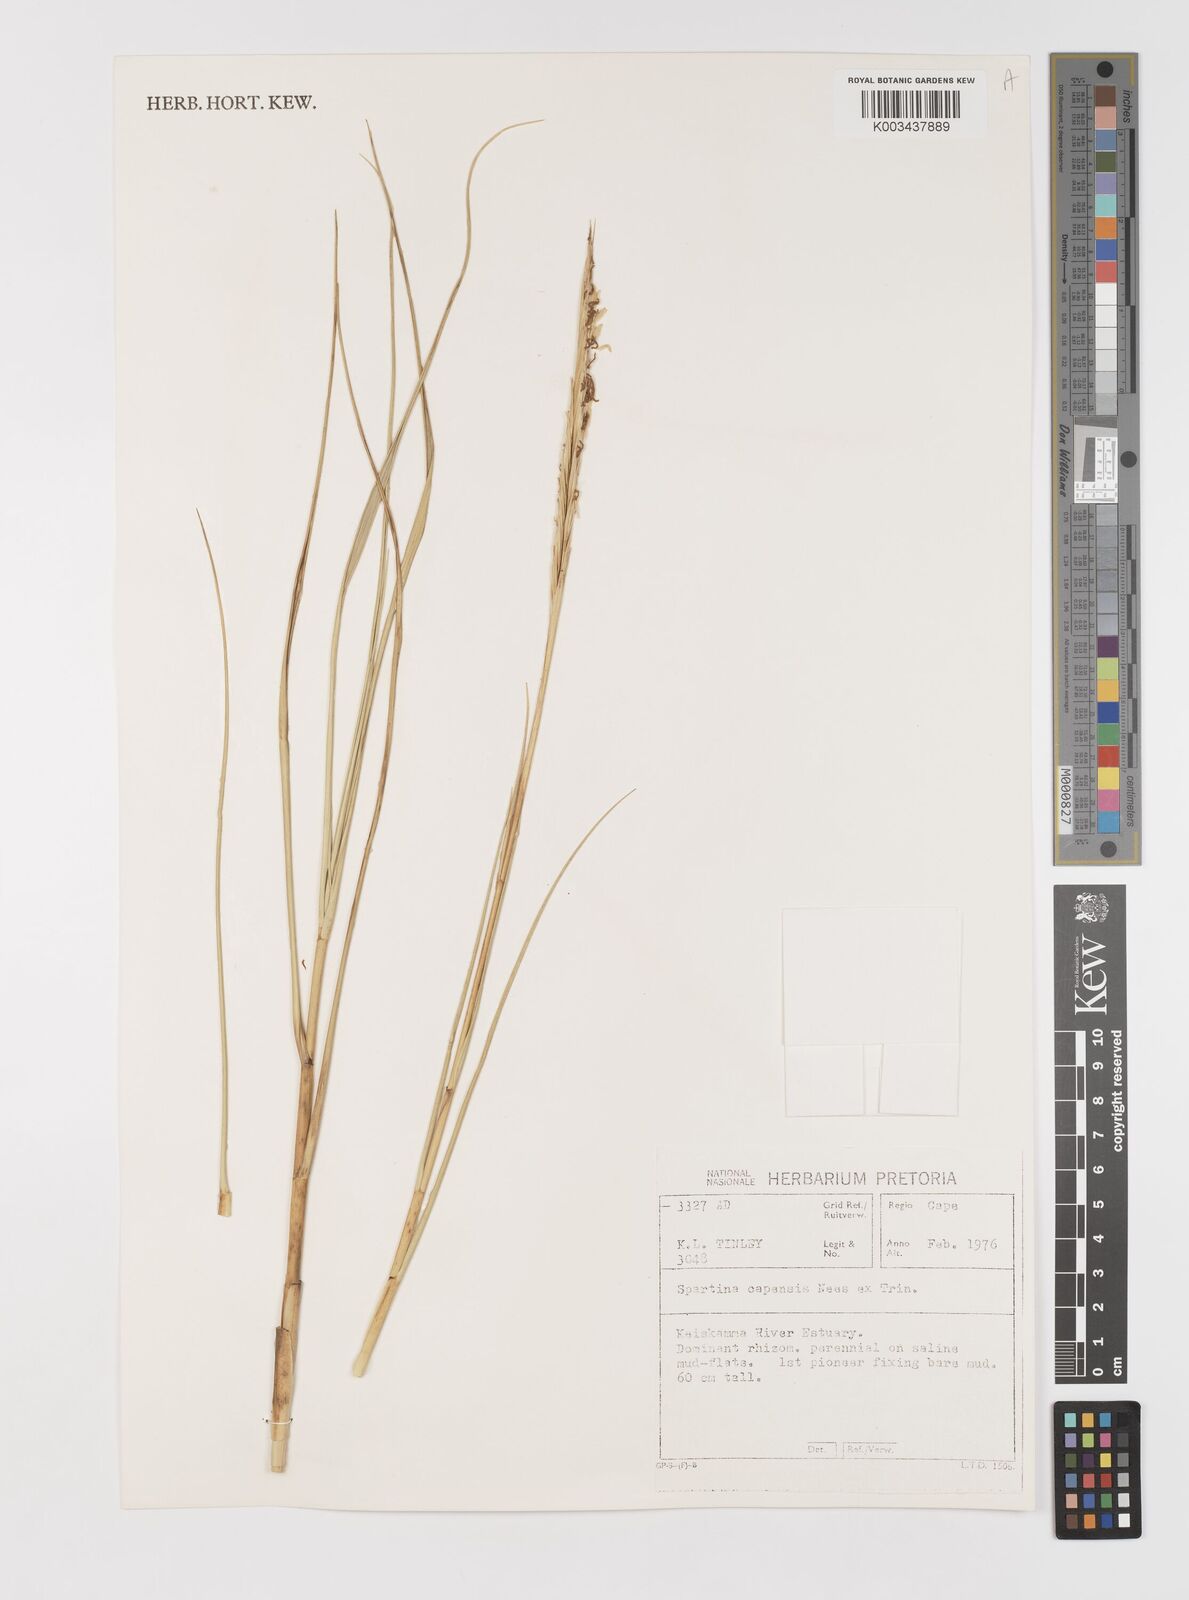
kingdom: Plantae
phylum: Tracheophyta
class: Liliopsida
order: Poales
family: Poaceae
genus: Sporobolus
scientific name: Sporobolus maritimus
